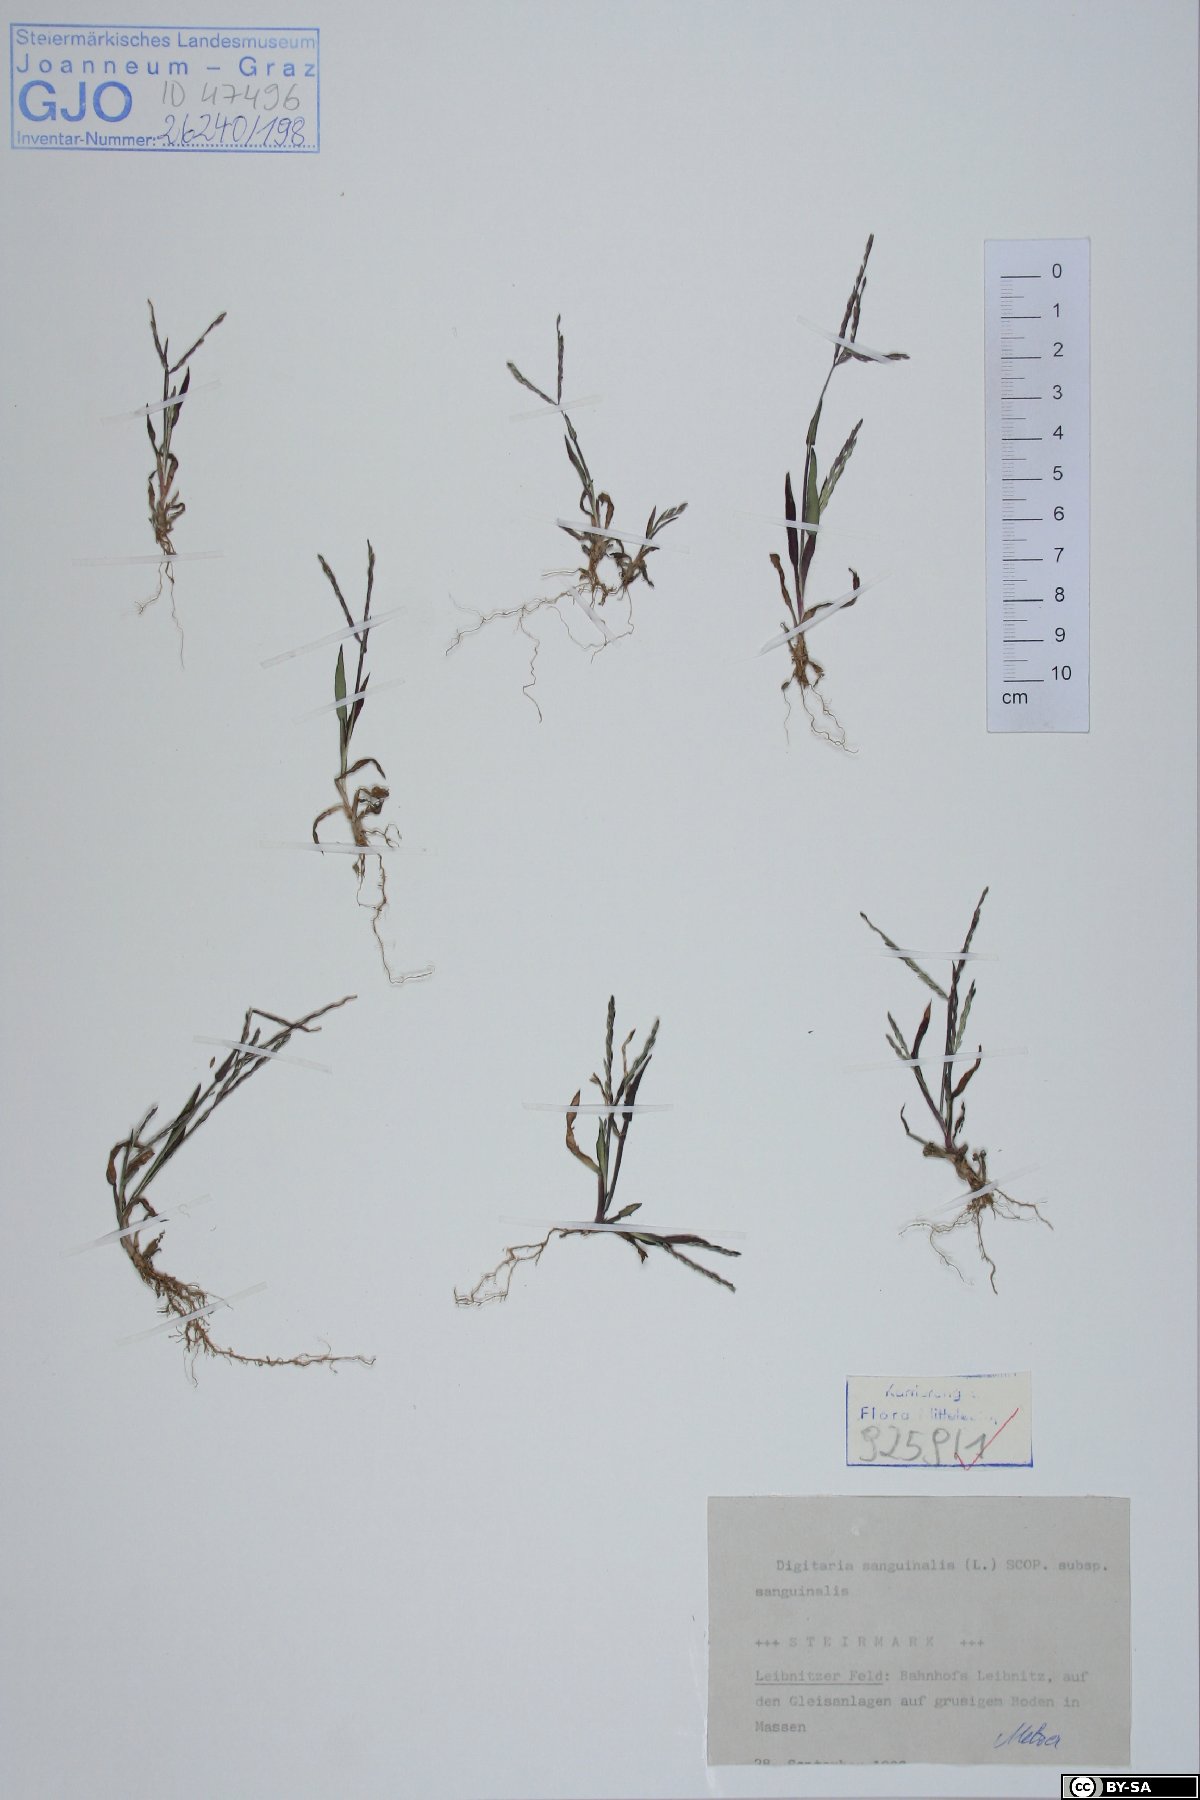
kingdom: Plantae
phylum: Tracheophyta
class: Liliopsida
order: Poales
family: Poaceae
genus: Digitaria
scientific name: Digitaria sanguinalis
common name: Hairy crabgrass
